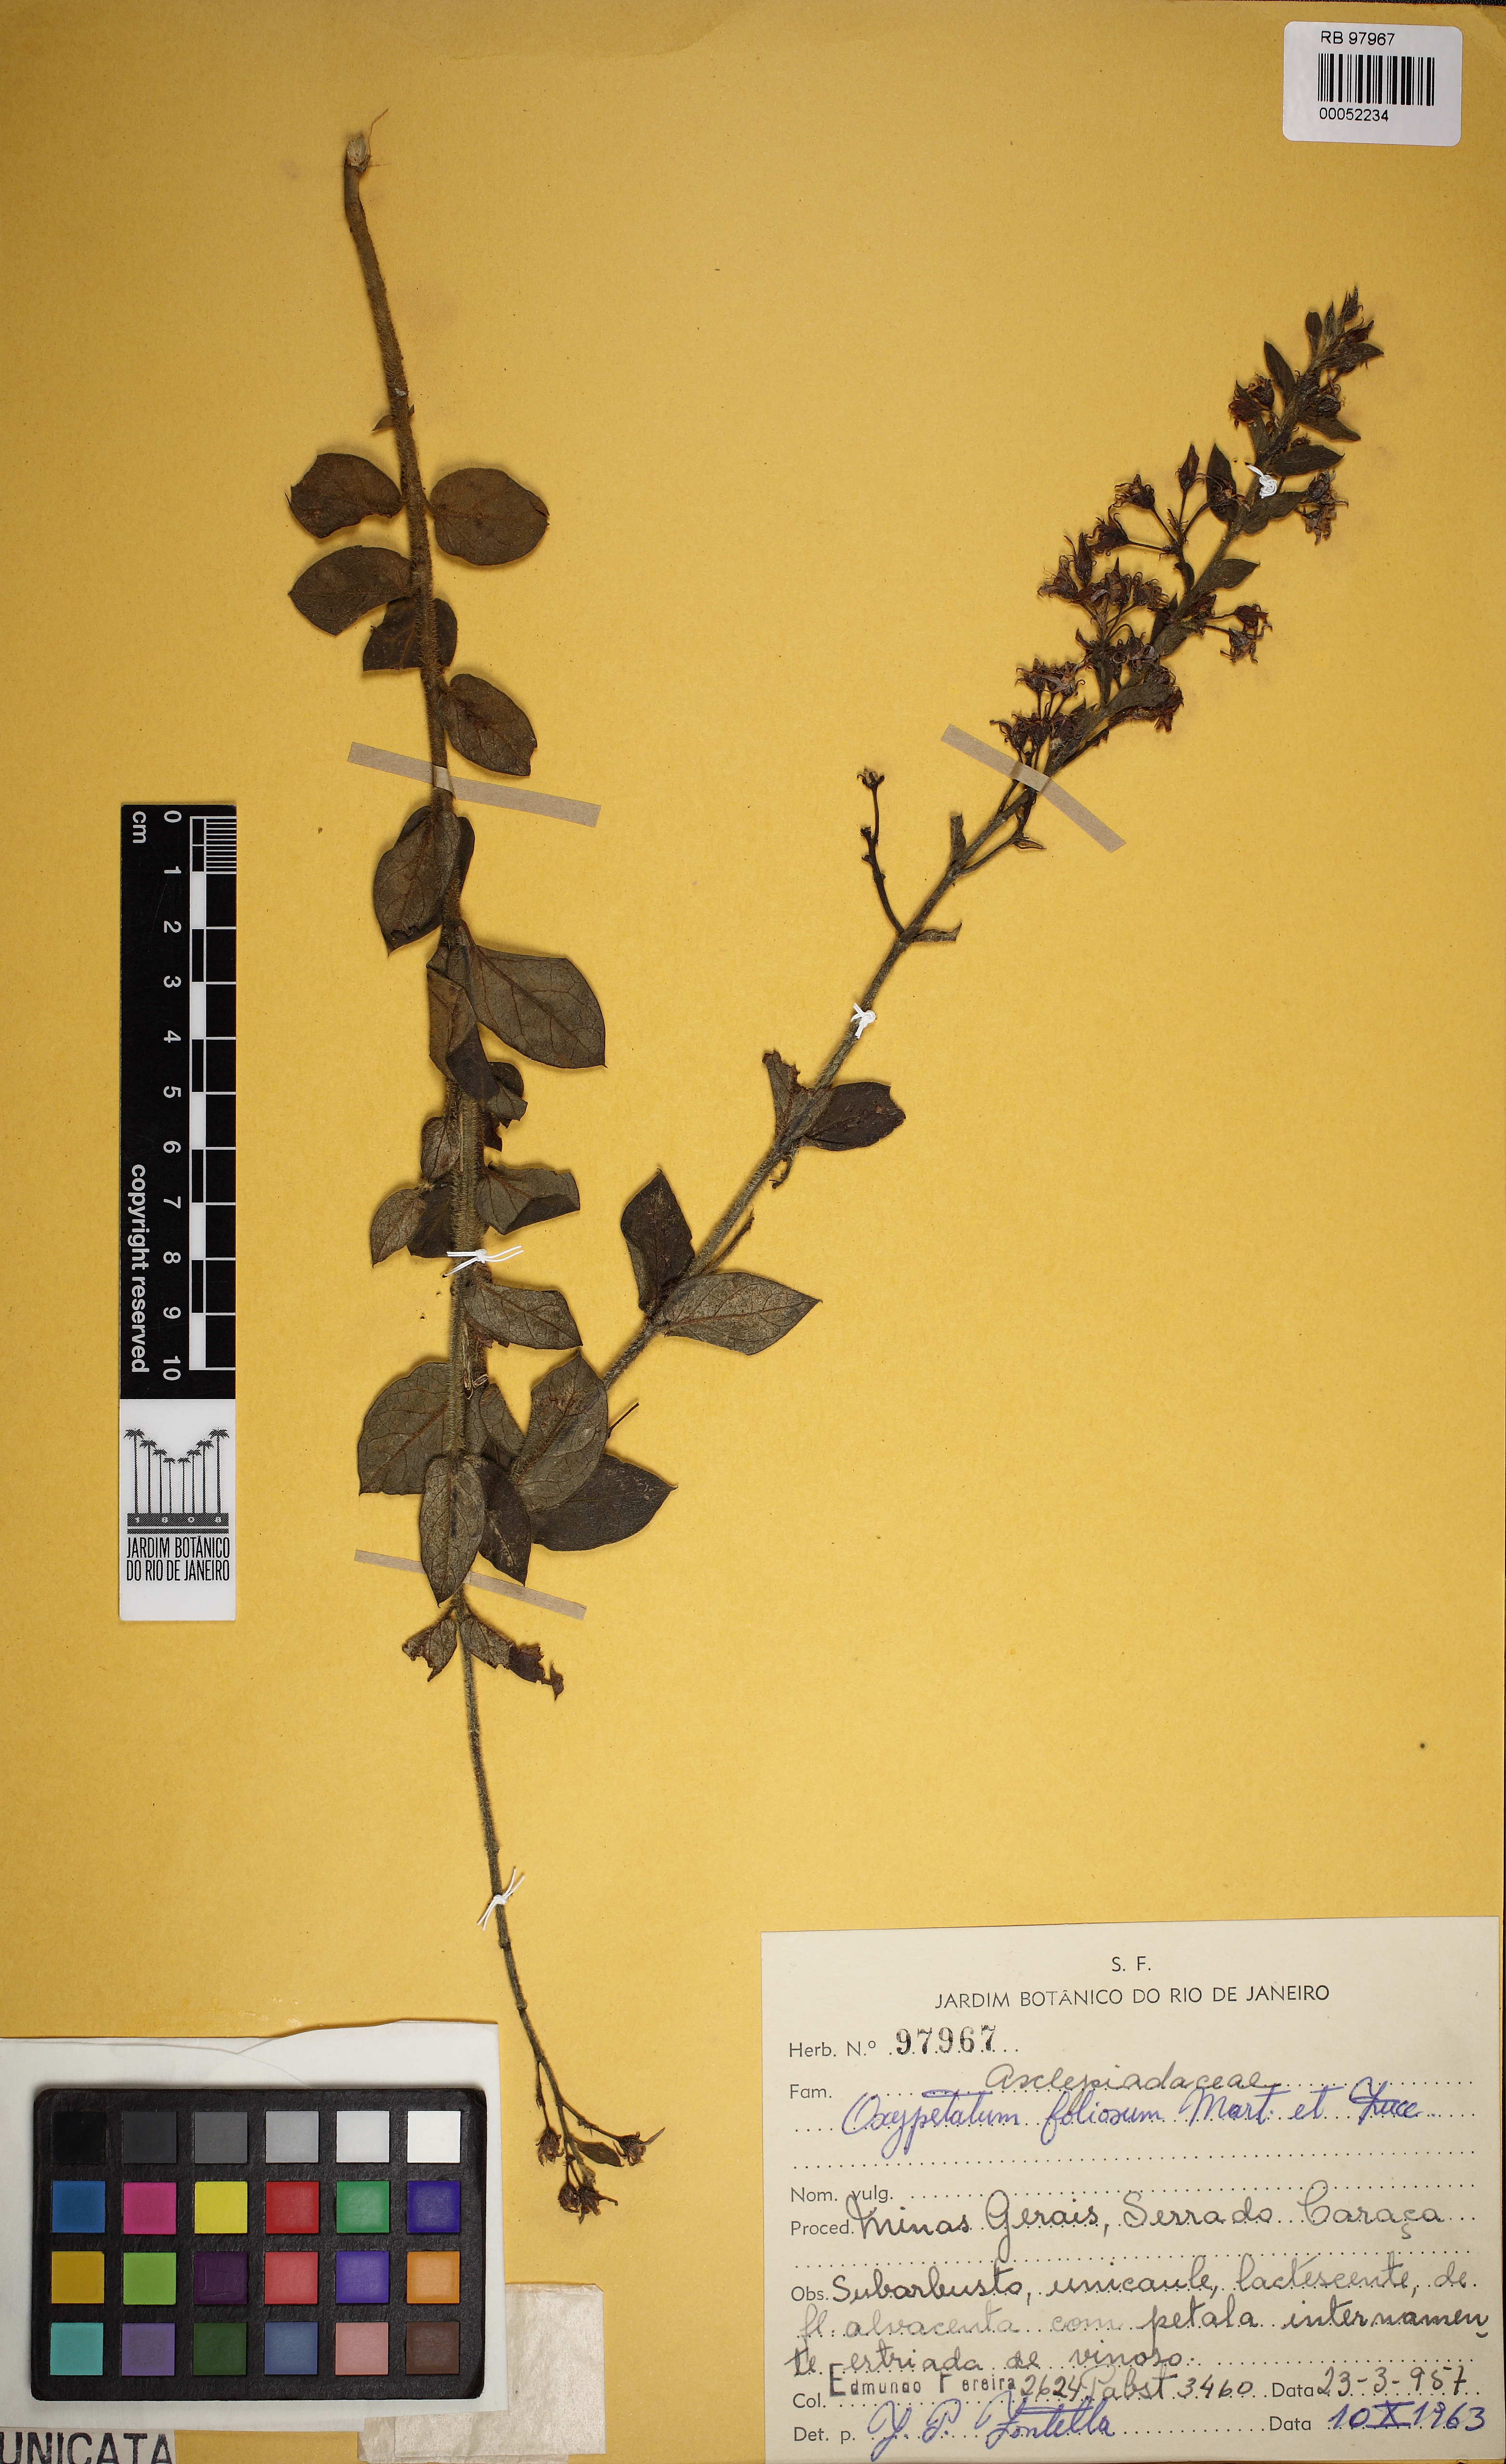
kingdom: Plantae
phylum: Tracheophyta
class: Magnoliopsida
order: Gentianales
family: Apocynaceae
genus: Oxypetalum
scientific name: Oxypetalum foliosum
